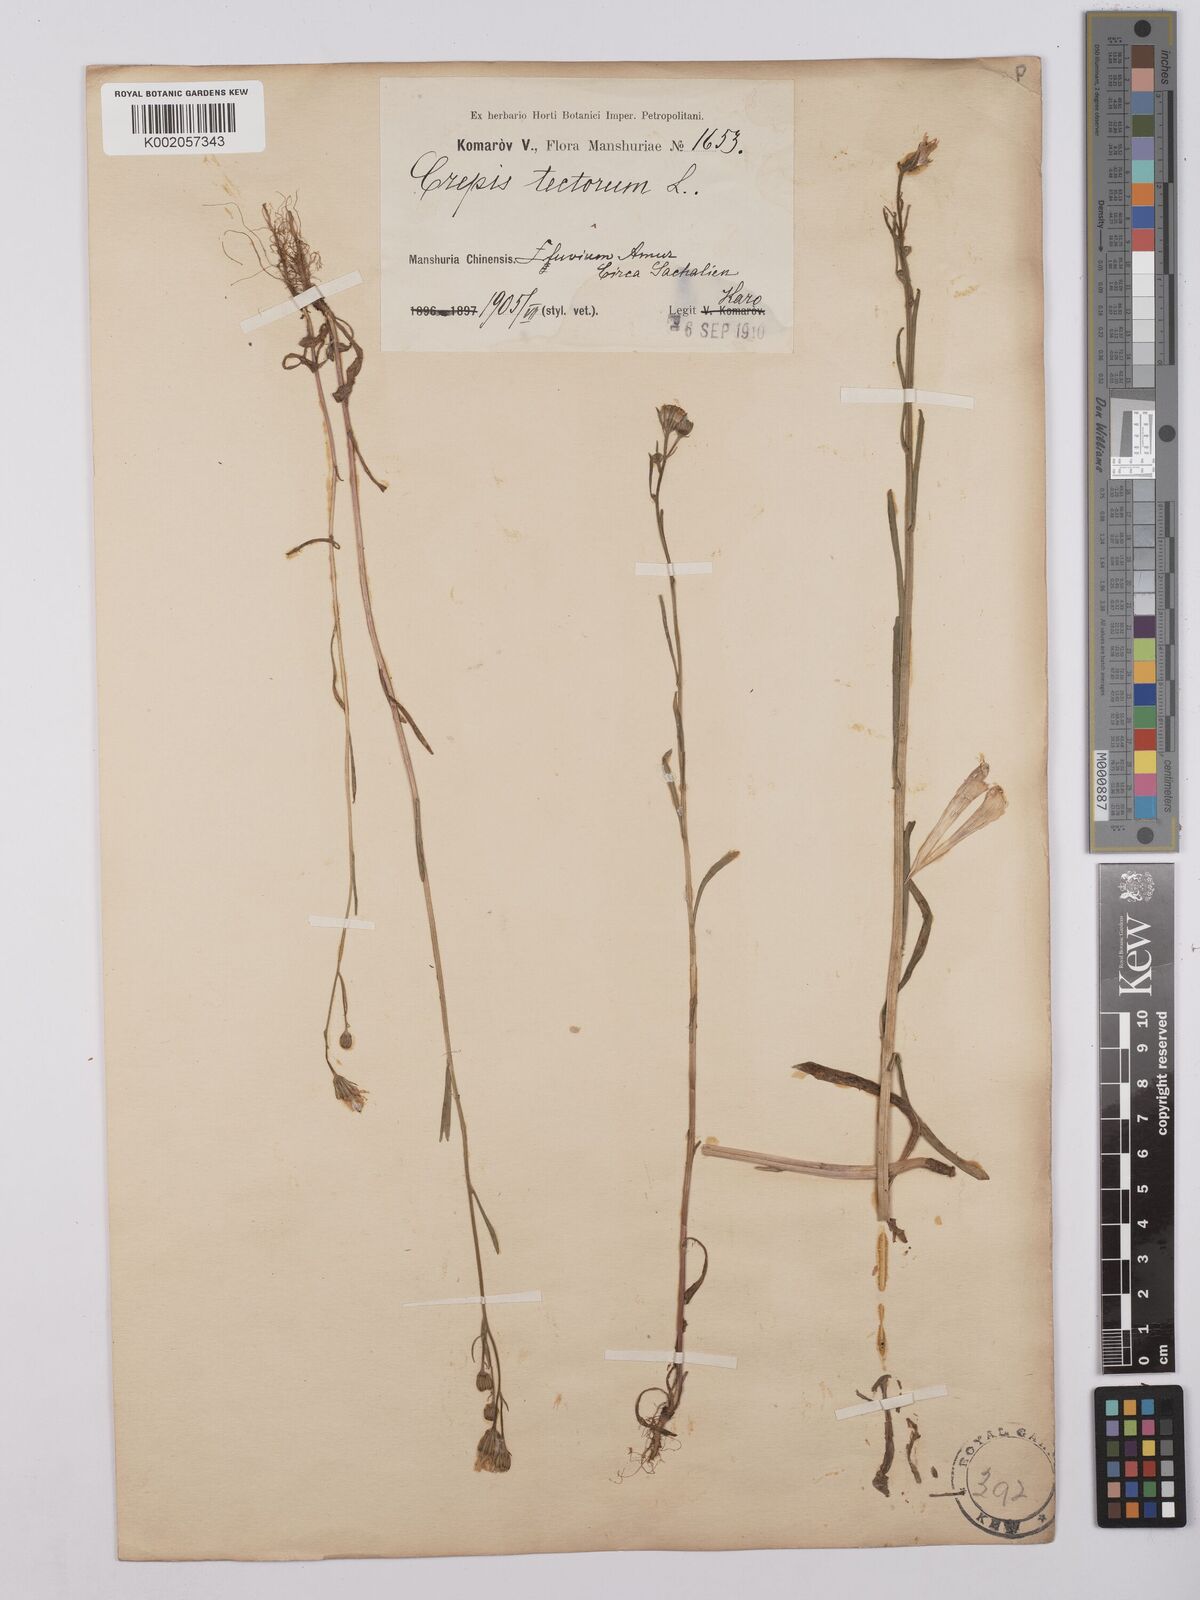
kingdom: Plantae
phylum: Tracheophyta
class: Magnoliopsida
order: Asterales
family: Asteraceae
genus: Crepis
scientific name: Crepis tectorum
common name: Narrow-leaved hawk's-beard
